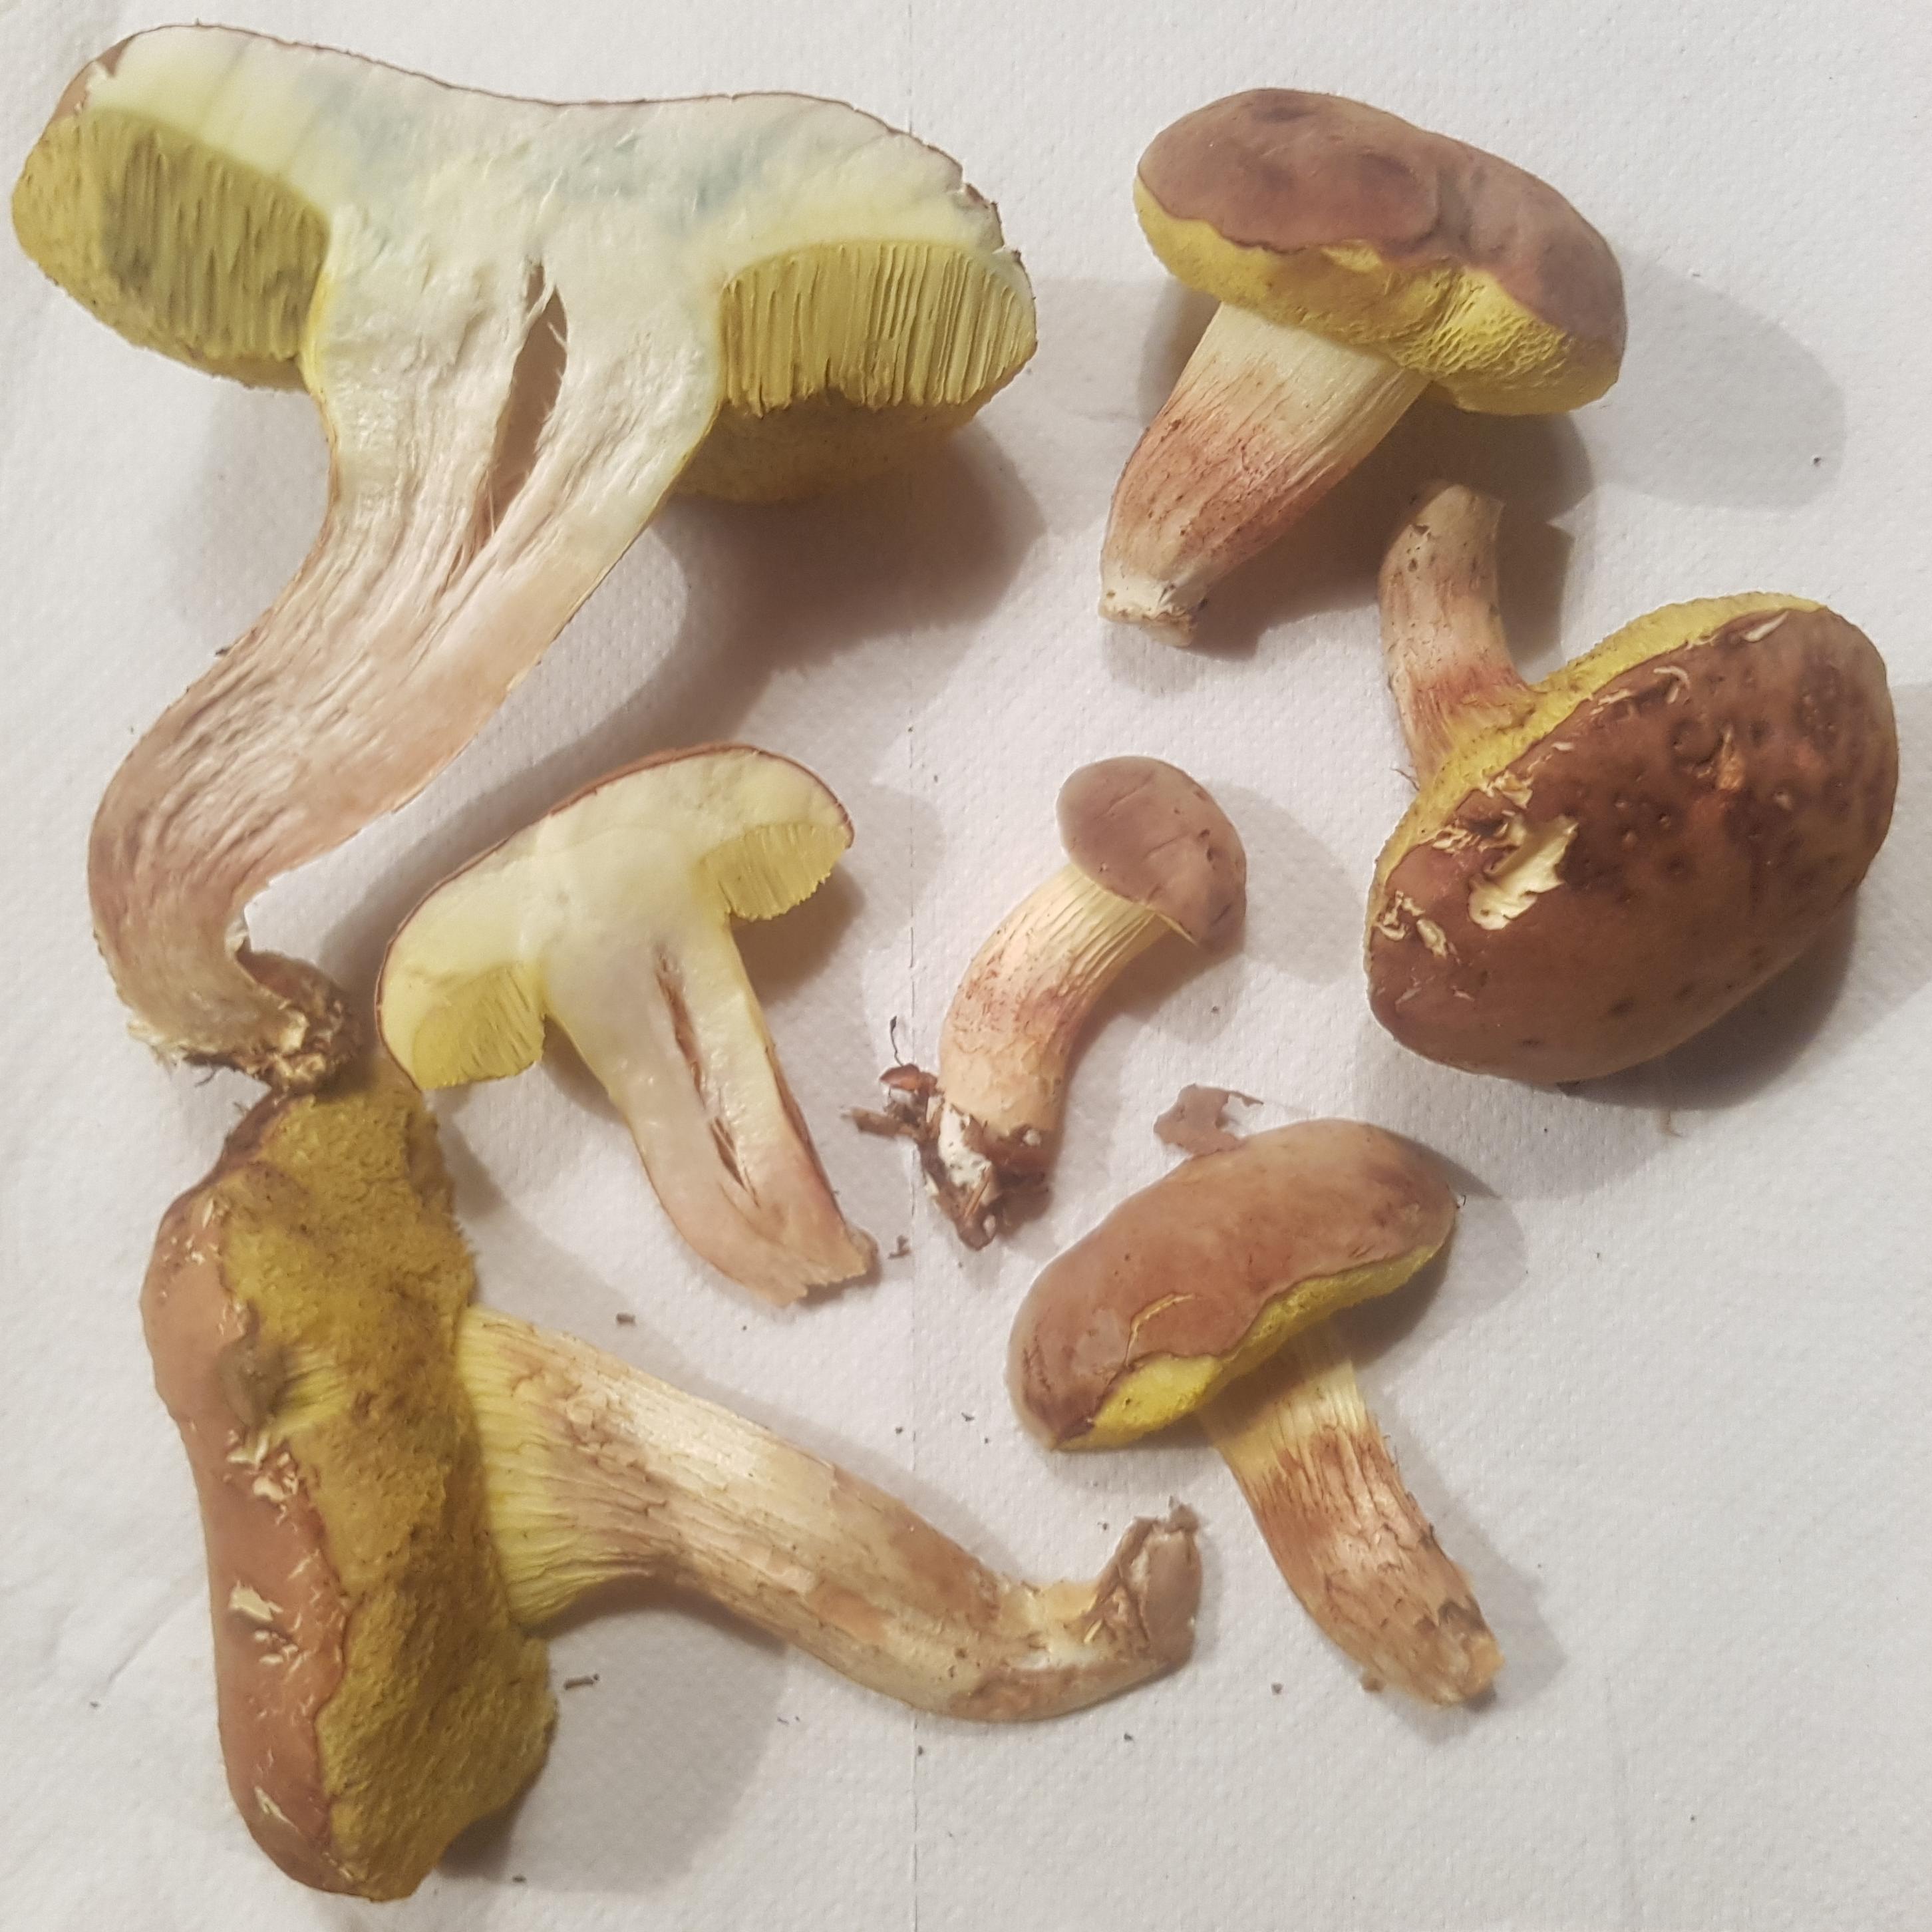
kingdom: Fungi
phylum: Basidiomycota
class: Agaricomycetes
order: Boletales
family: Boletaceae
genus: Xerocomus
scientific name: Xerocomus subtomentosus
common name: filtet rørhat
